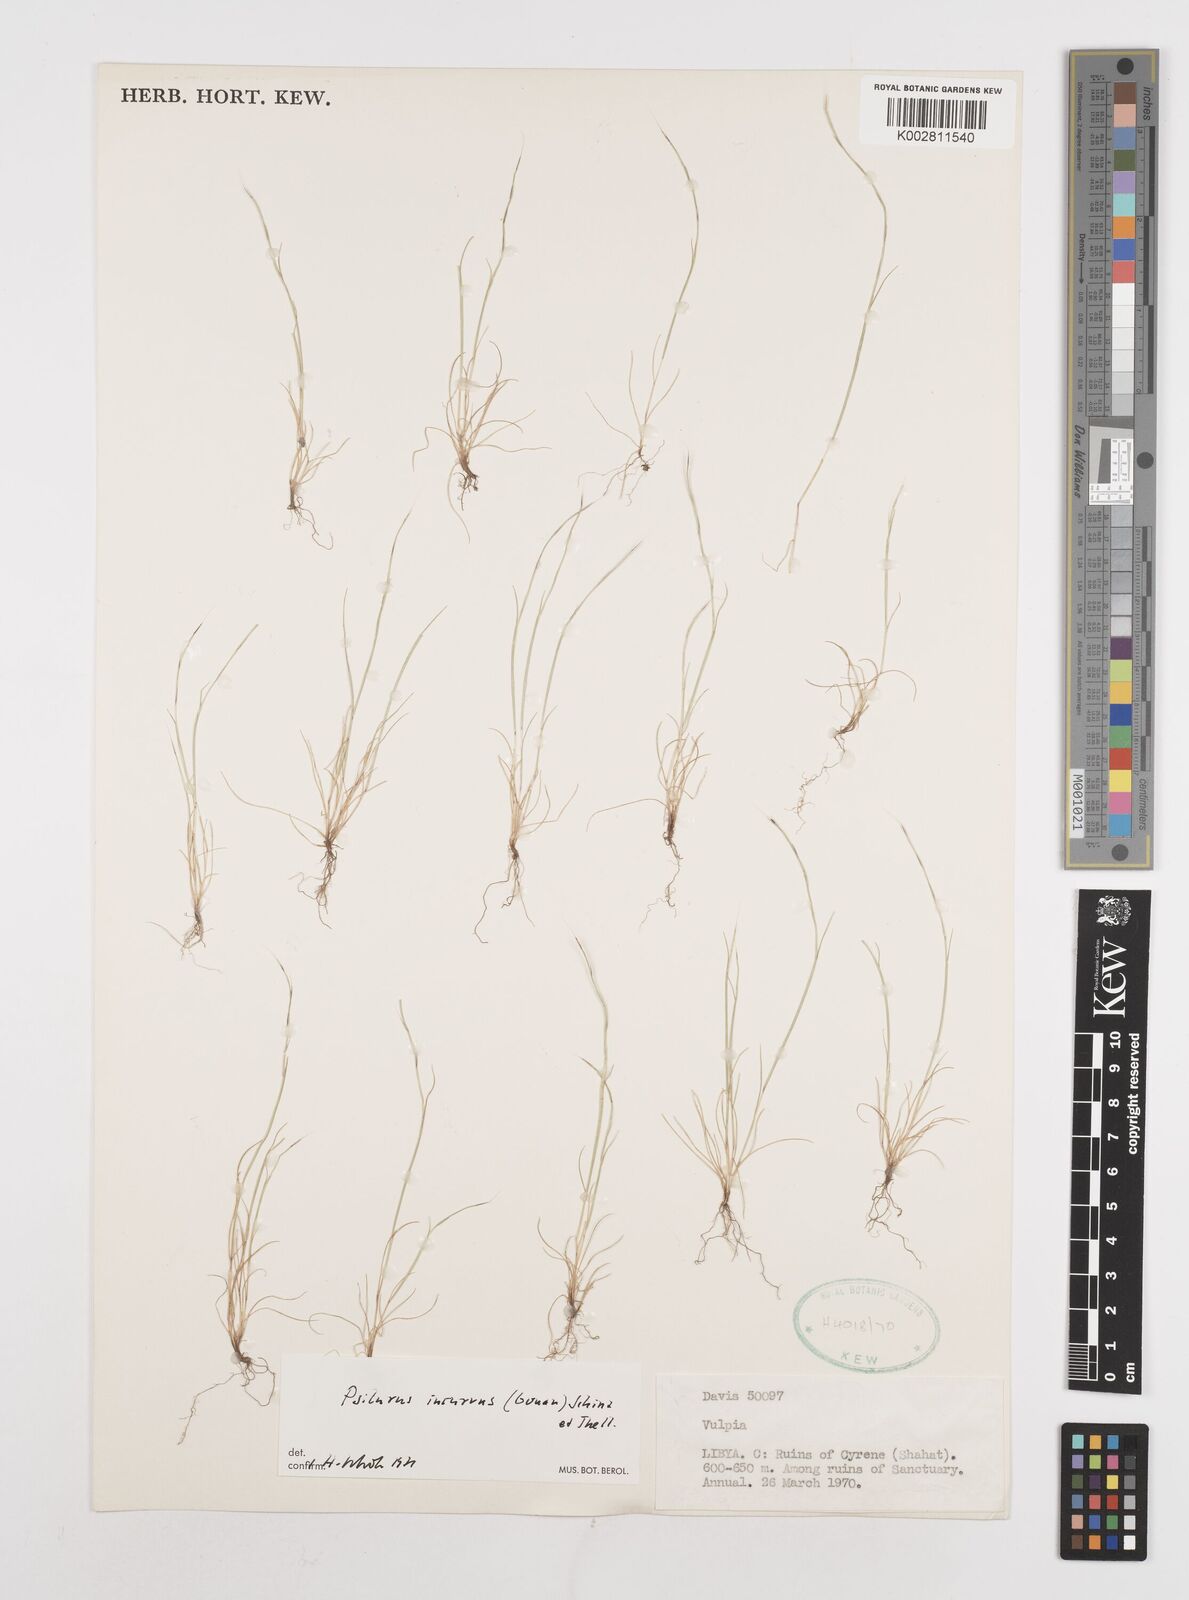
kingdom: Plantae
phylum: Tracheophyta
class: Liliopsida
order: Poales
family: Poaceae
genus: Festuca
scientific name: Festuca
